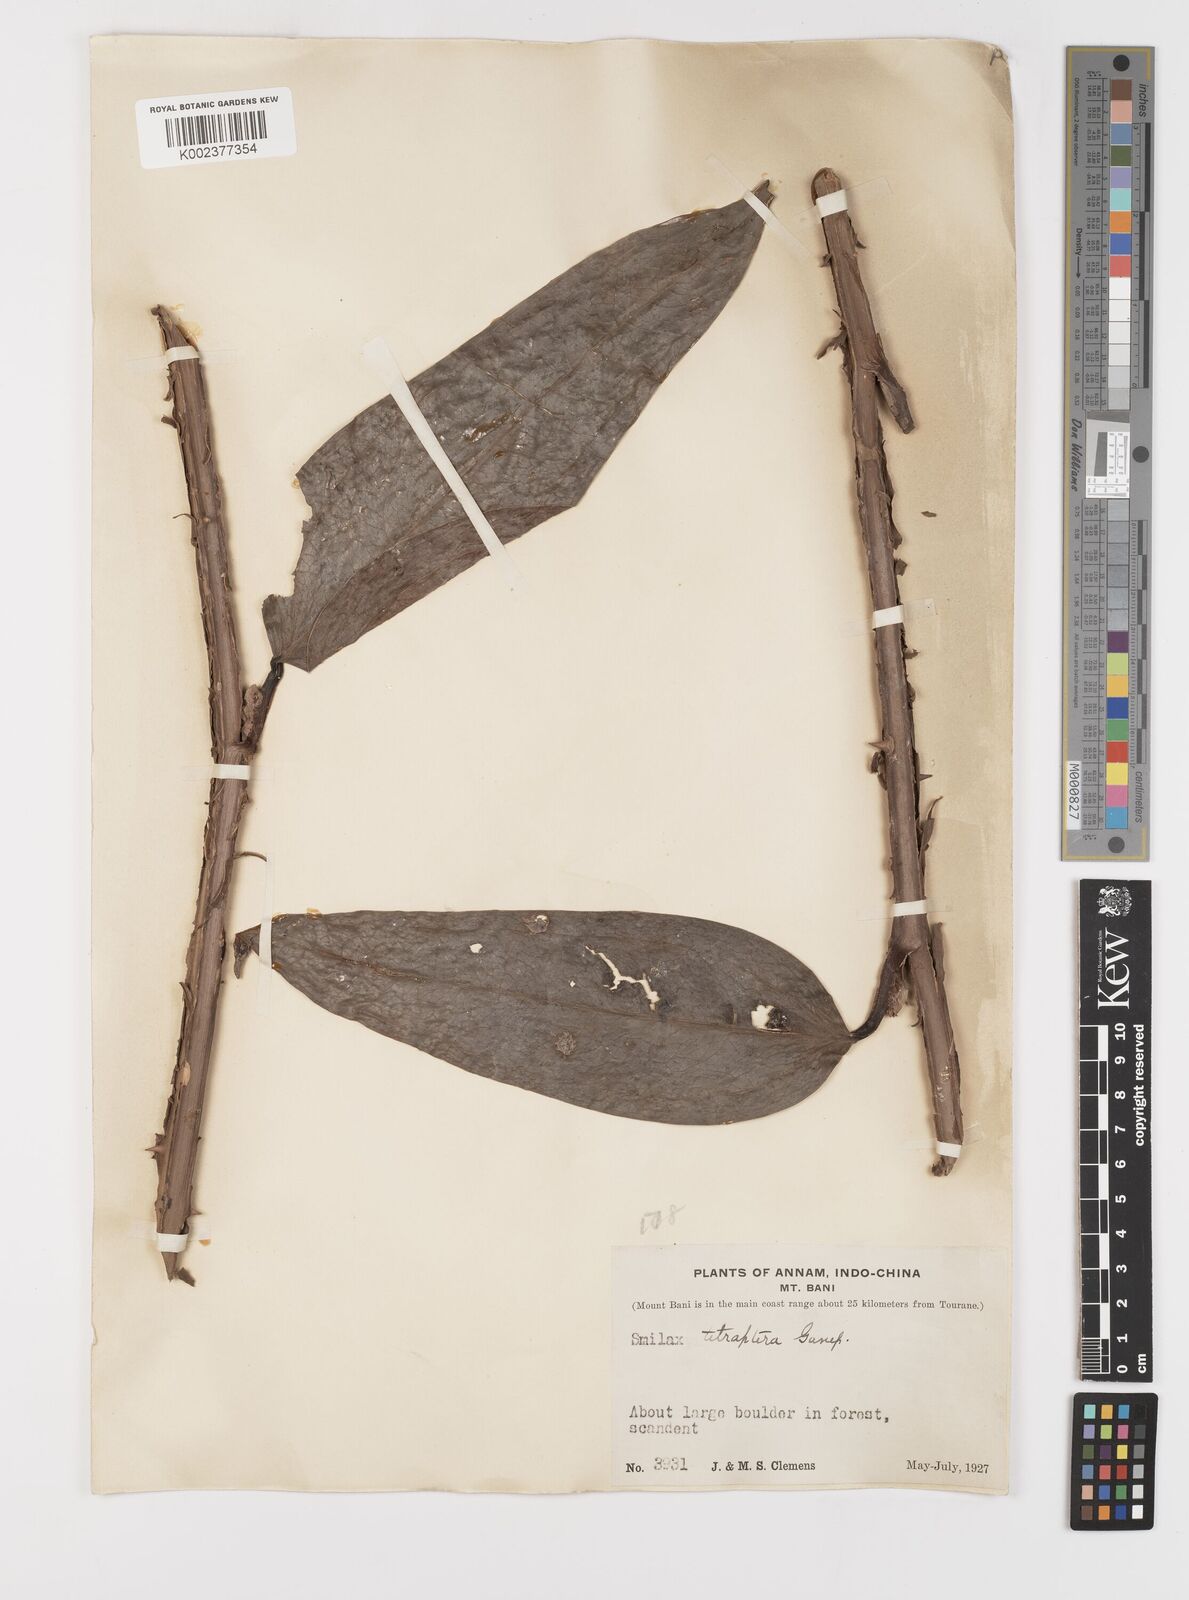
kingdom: Plantae
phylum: Tracheophyta
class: Liliopsida
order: Liliales
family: Smilacaceae
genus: Smilax
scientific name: Smilax gagnepainii
